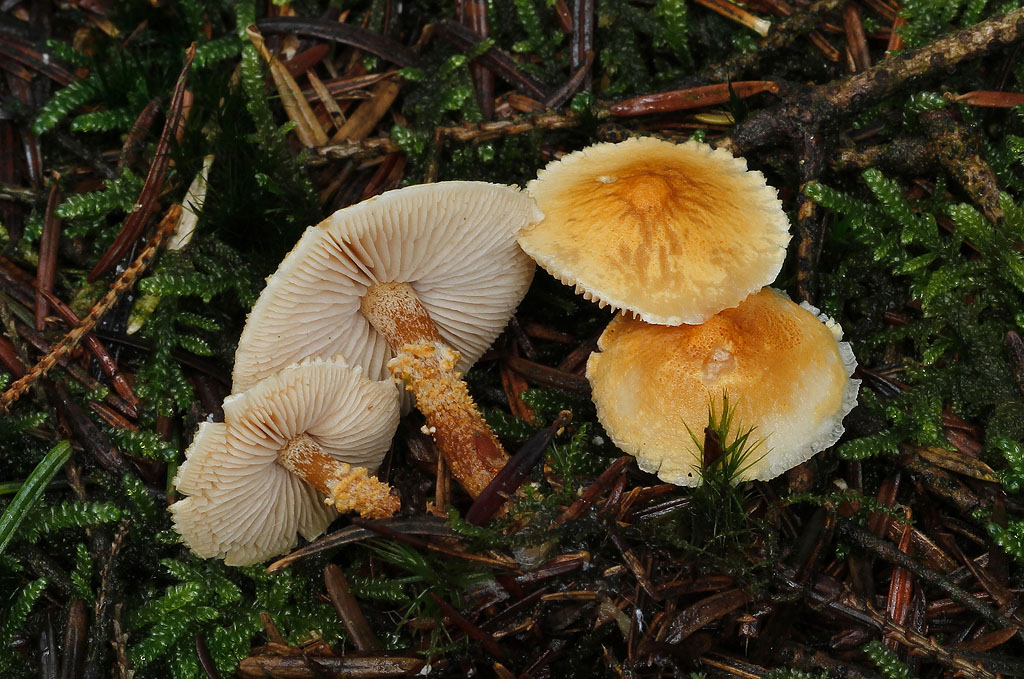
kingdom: Fungi
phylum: Basidiomycota
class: Agaricomycetes
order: Agaricales
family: Tricholomataceae
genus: Cystoderma
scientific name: Cystoderma amianthinum
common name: okkergul grynhat
